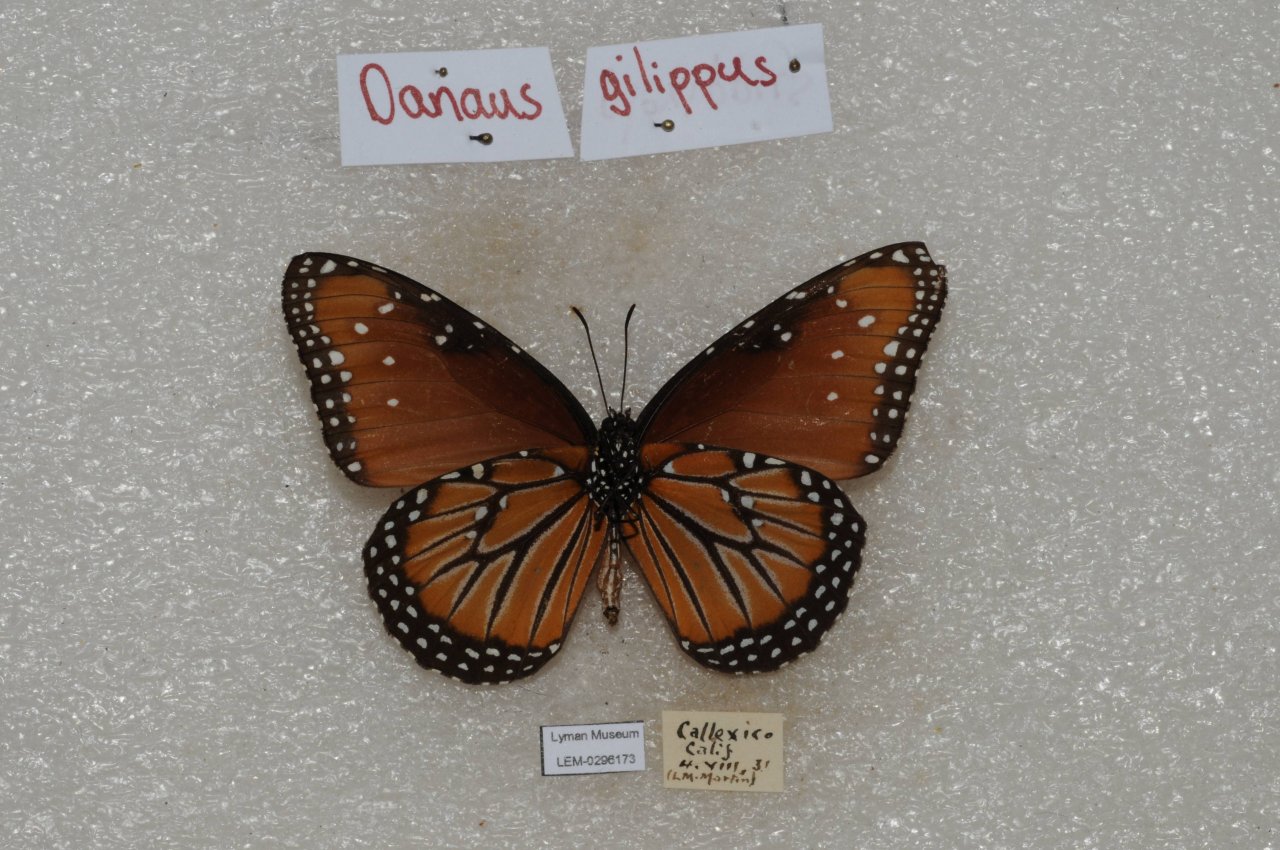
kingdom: Animalia
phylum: Arthropoda
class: Insecta
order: Lepidoptera
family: Nymphalidae
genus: Danaus
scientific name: Danaus gilippus
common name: Queen
